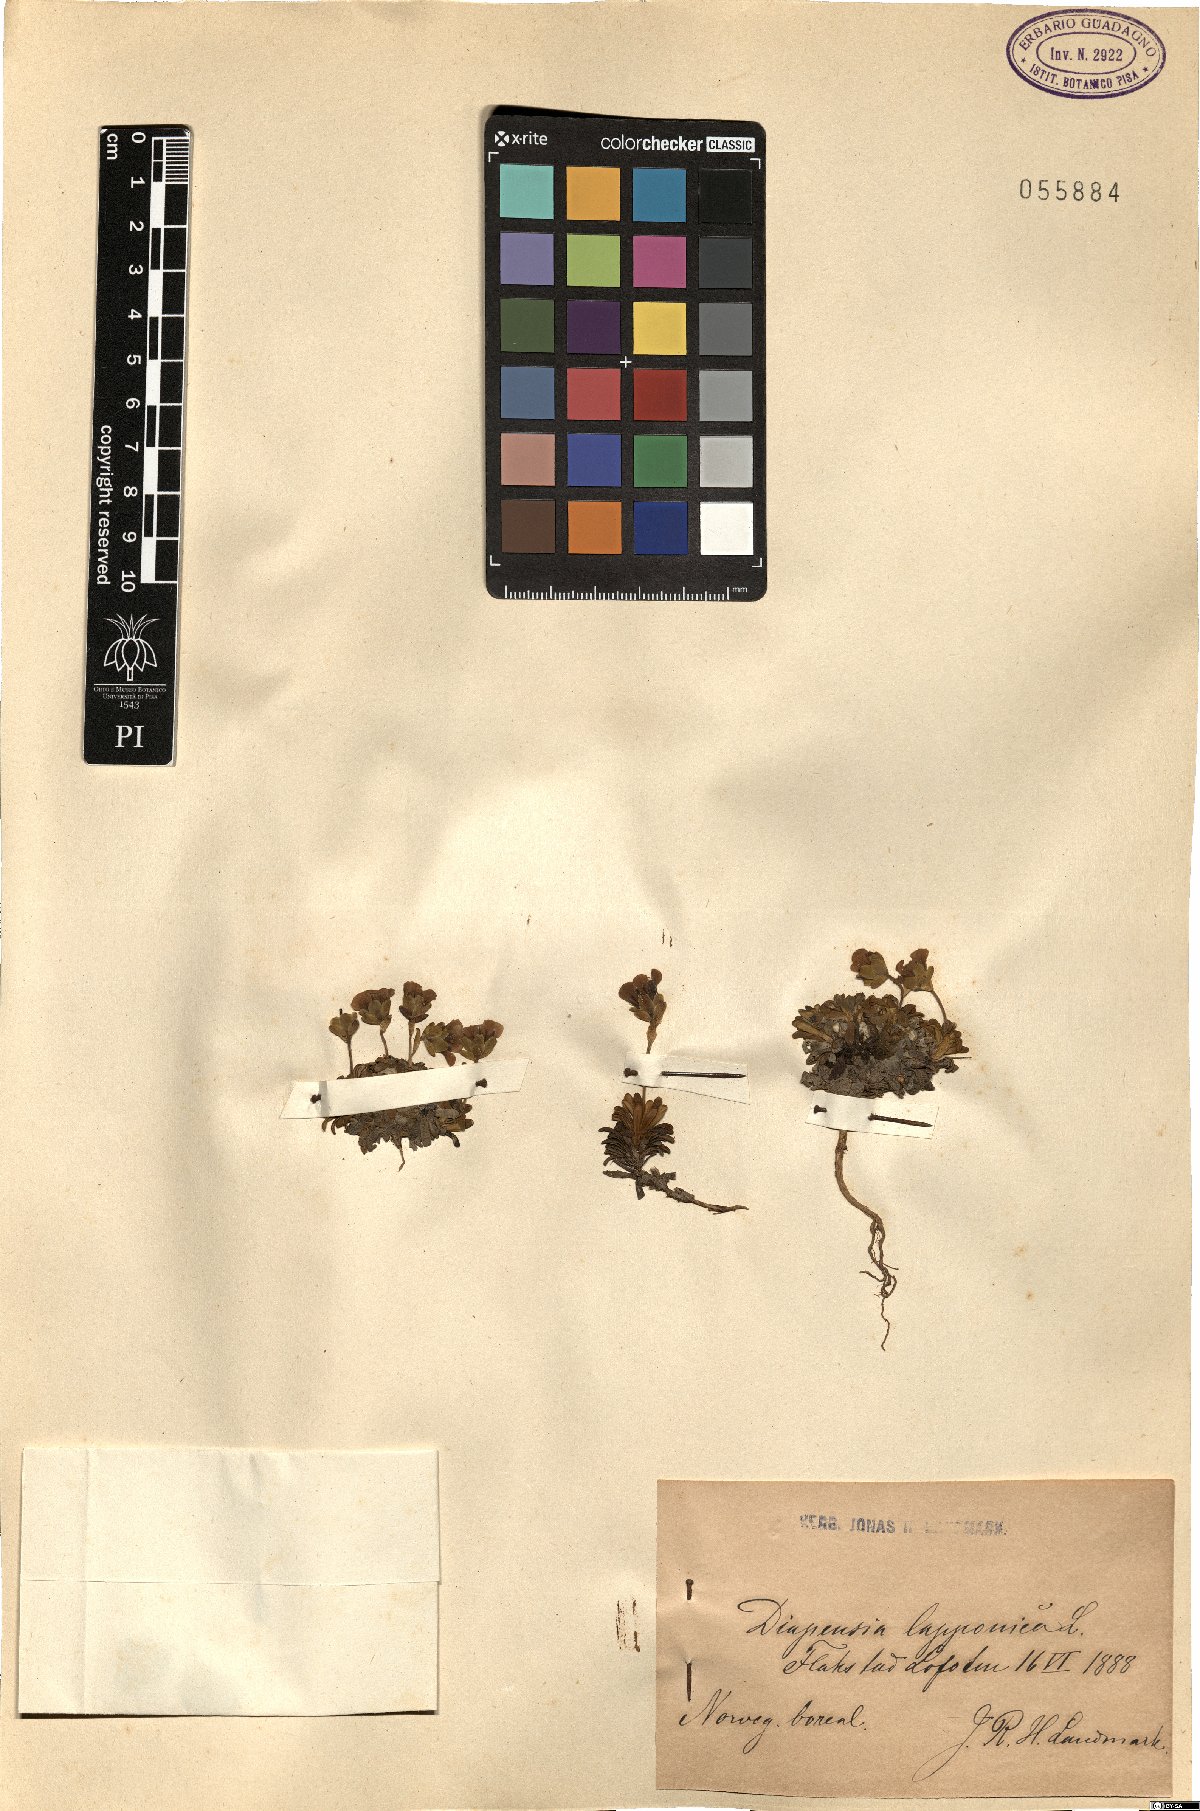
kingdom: Plantae
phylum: Tracheophyta
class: Magnoliopsida
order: Ericales
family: Diapensiaceae
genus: Diapensia
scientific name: Diapensia lapponica
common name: Diapensia
